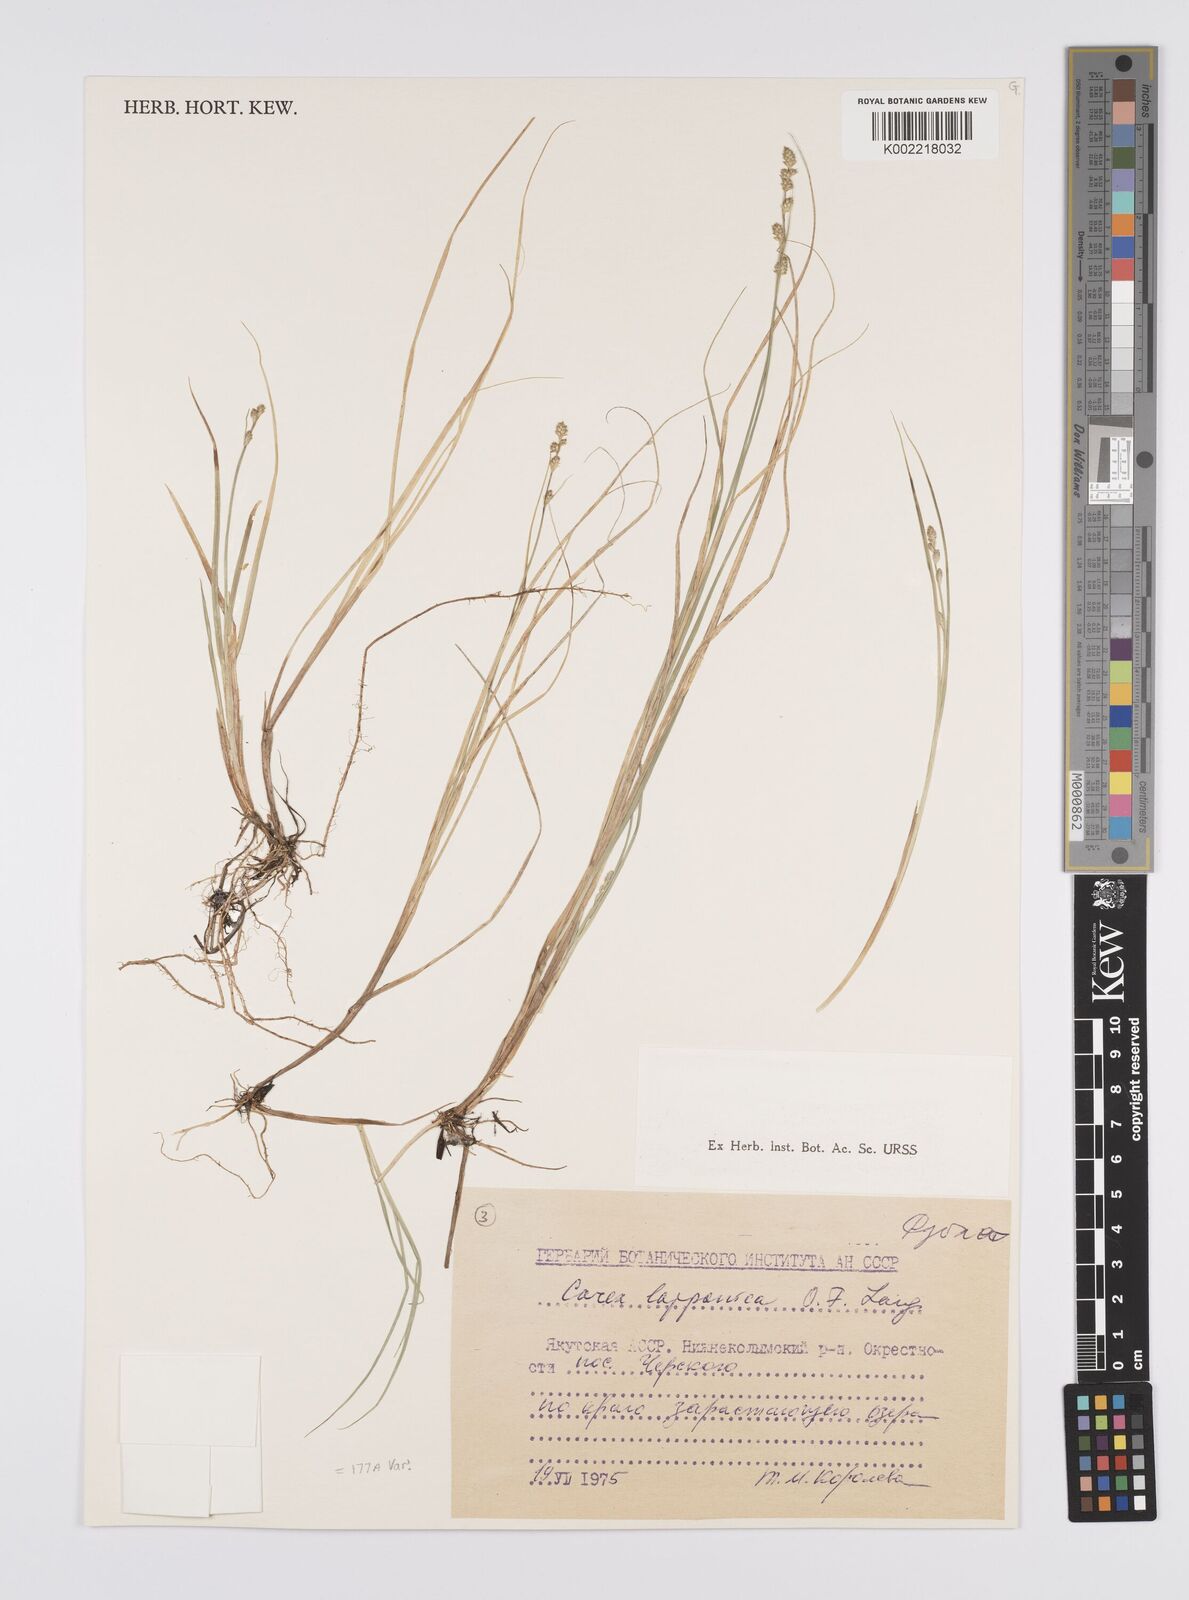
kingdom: Plantae
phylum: Tracheophyta
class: Liliopsida
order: Poales
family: Cyperaceae
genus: Carex
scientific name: Carex canescens
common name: White sedge
